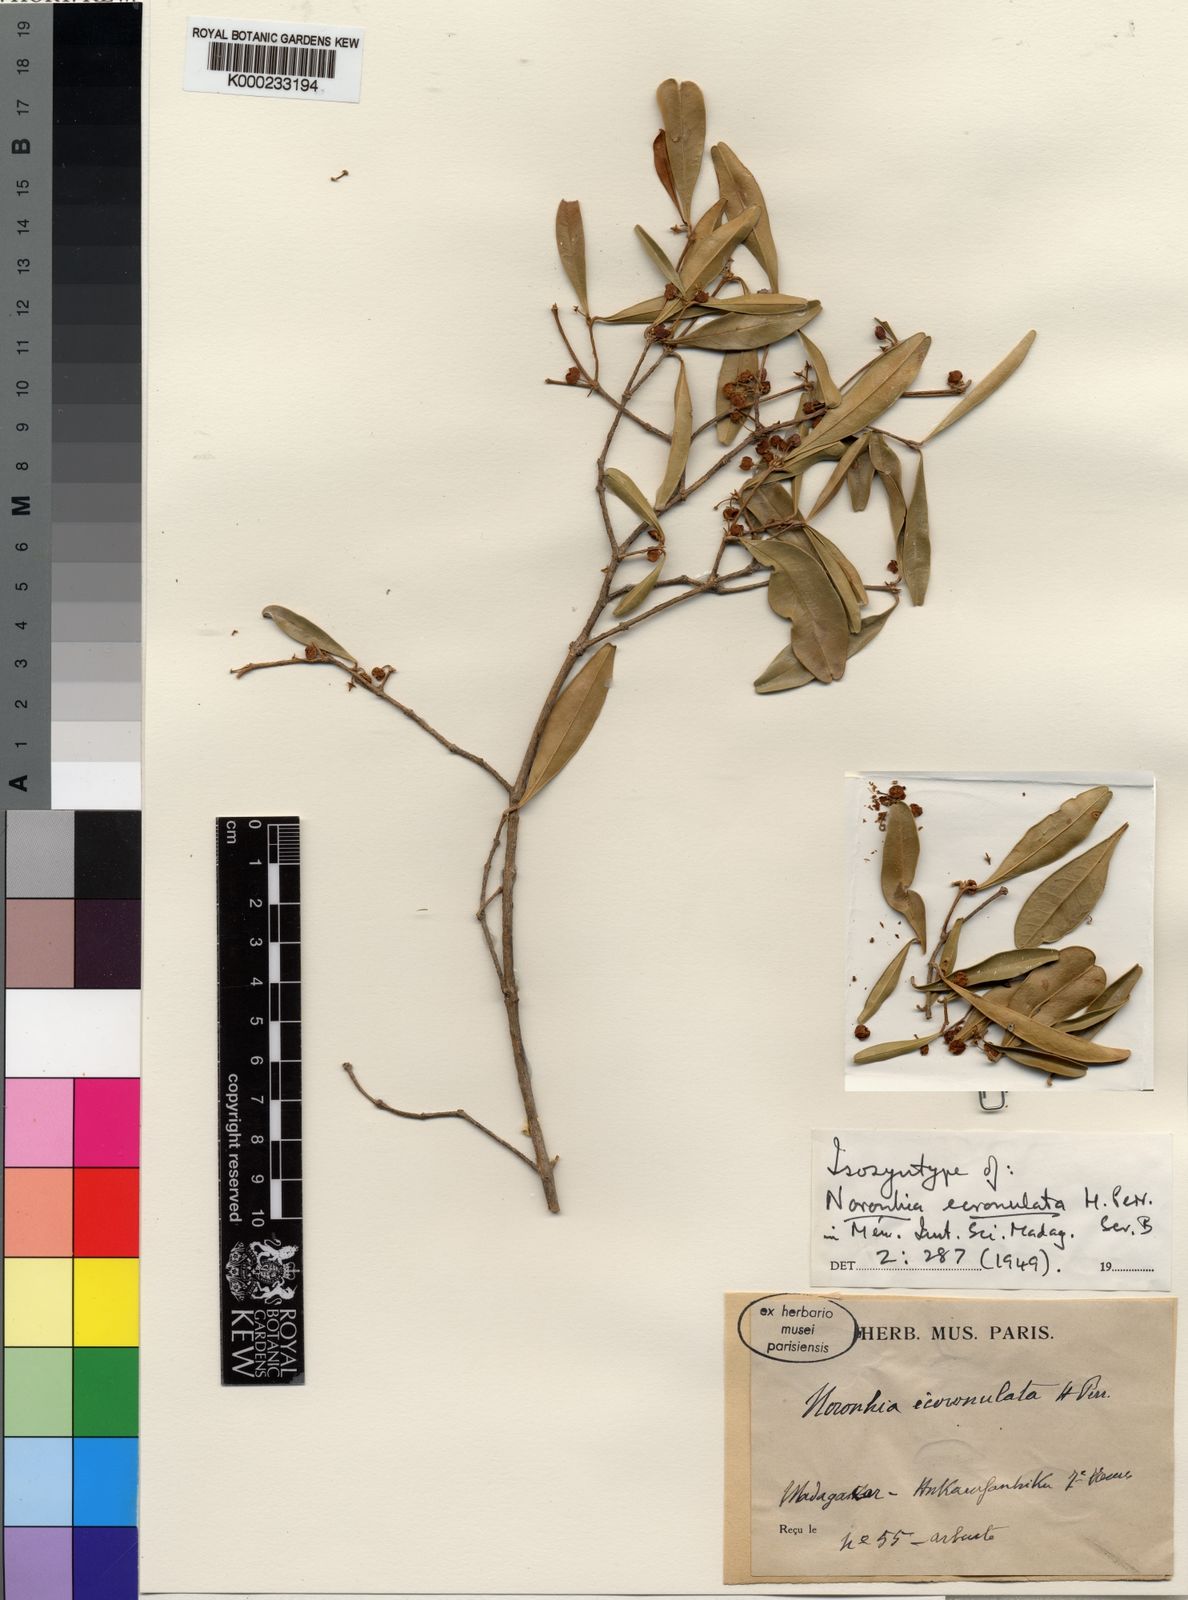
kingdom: Plantae
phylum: Tracheophyta
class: Magnoliopsida
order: Lamiales
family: Oleaceae
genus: Noronhia
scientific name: Noronhia ecoronulata
